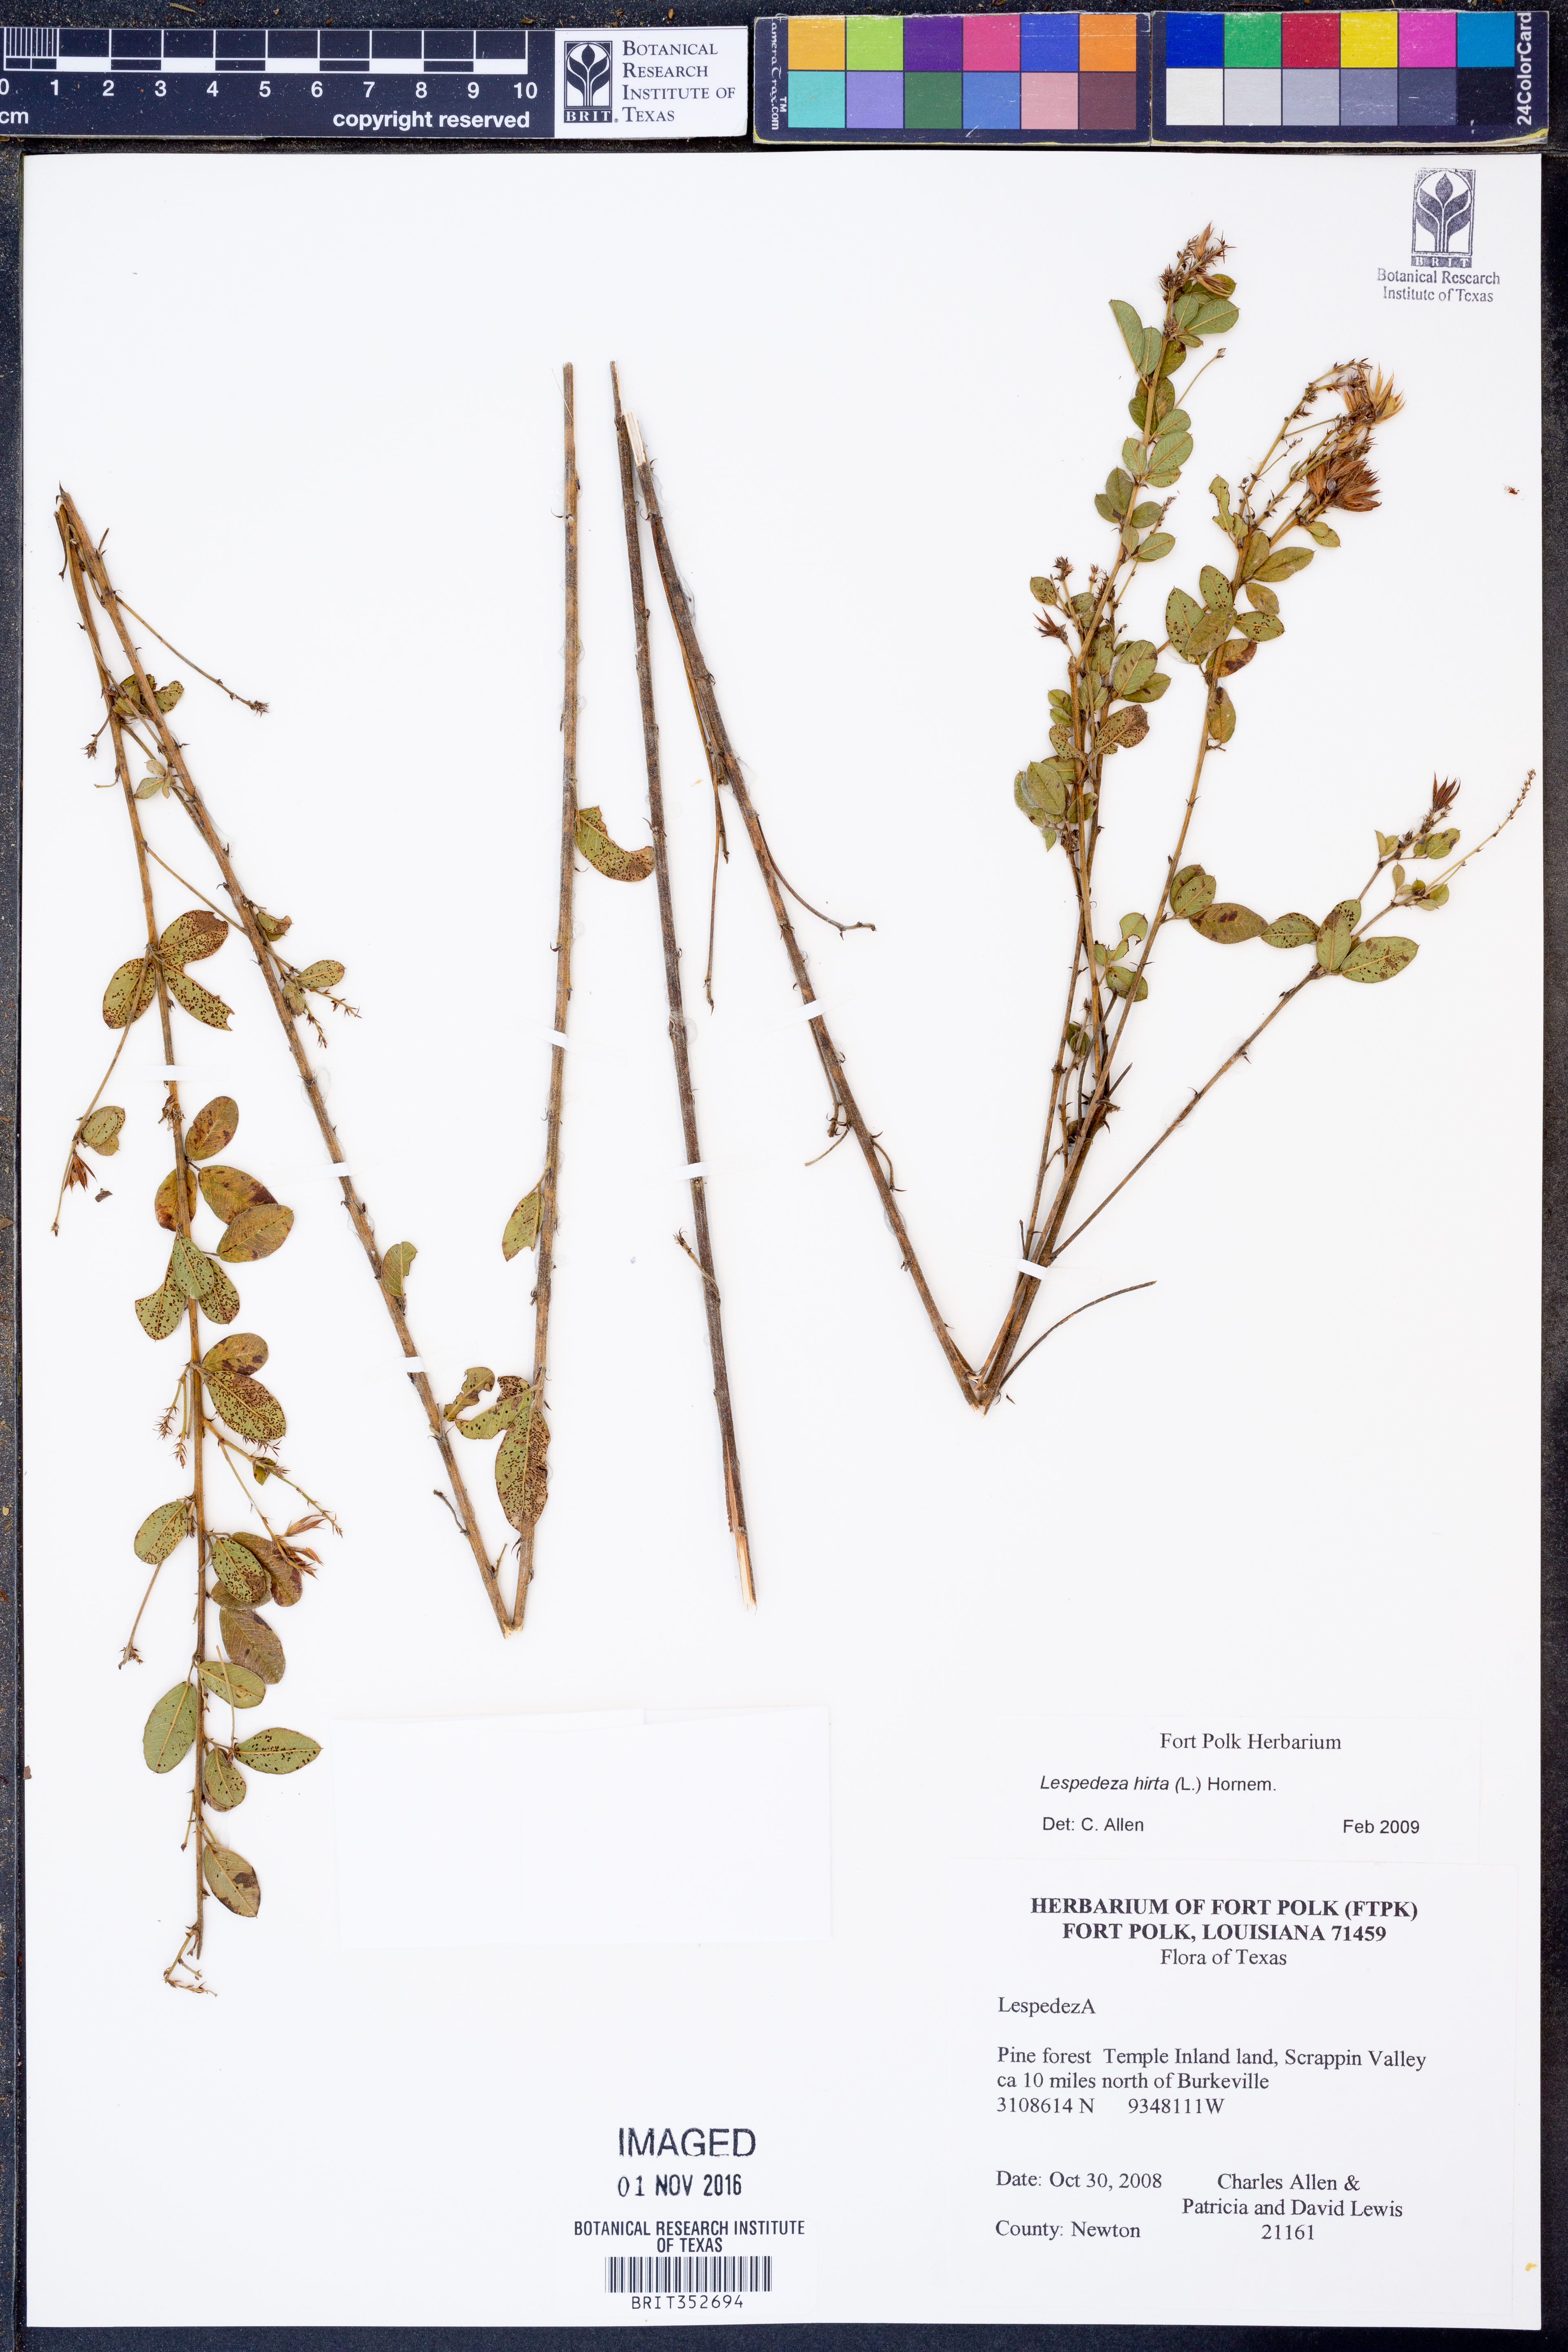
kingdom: Plantae
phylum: Tracheophyta
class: Magnoliopsida
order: Fabales
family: Fabaceae
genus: Lespedeza
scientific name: Lespedeza hirta
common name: Hairy lespedeza
